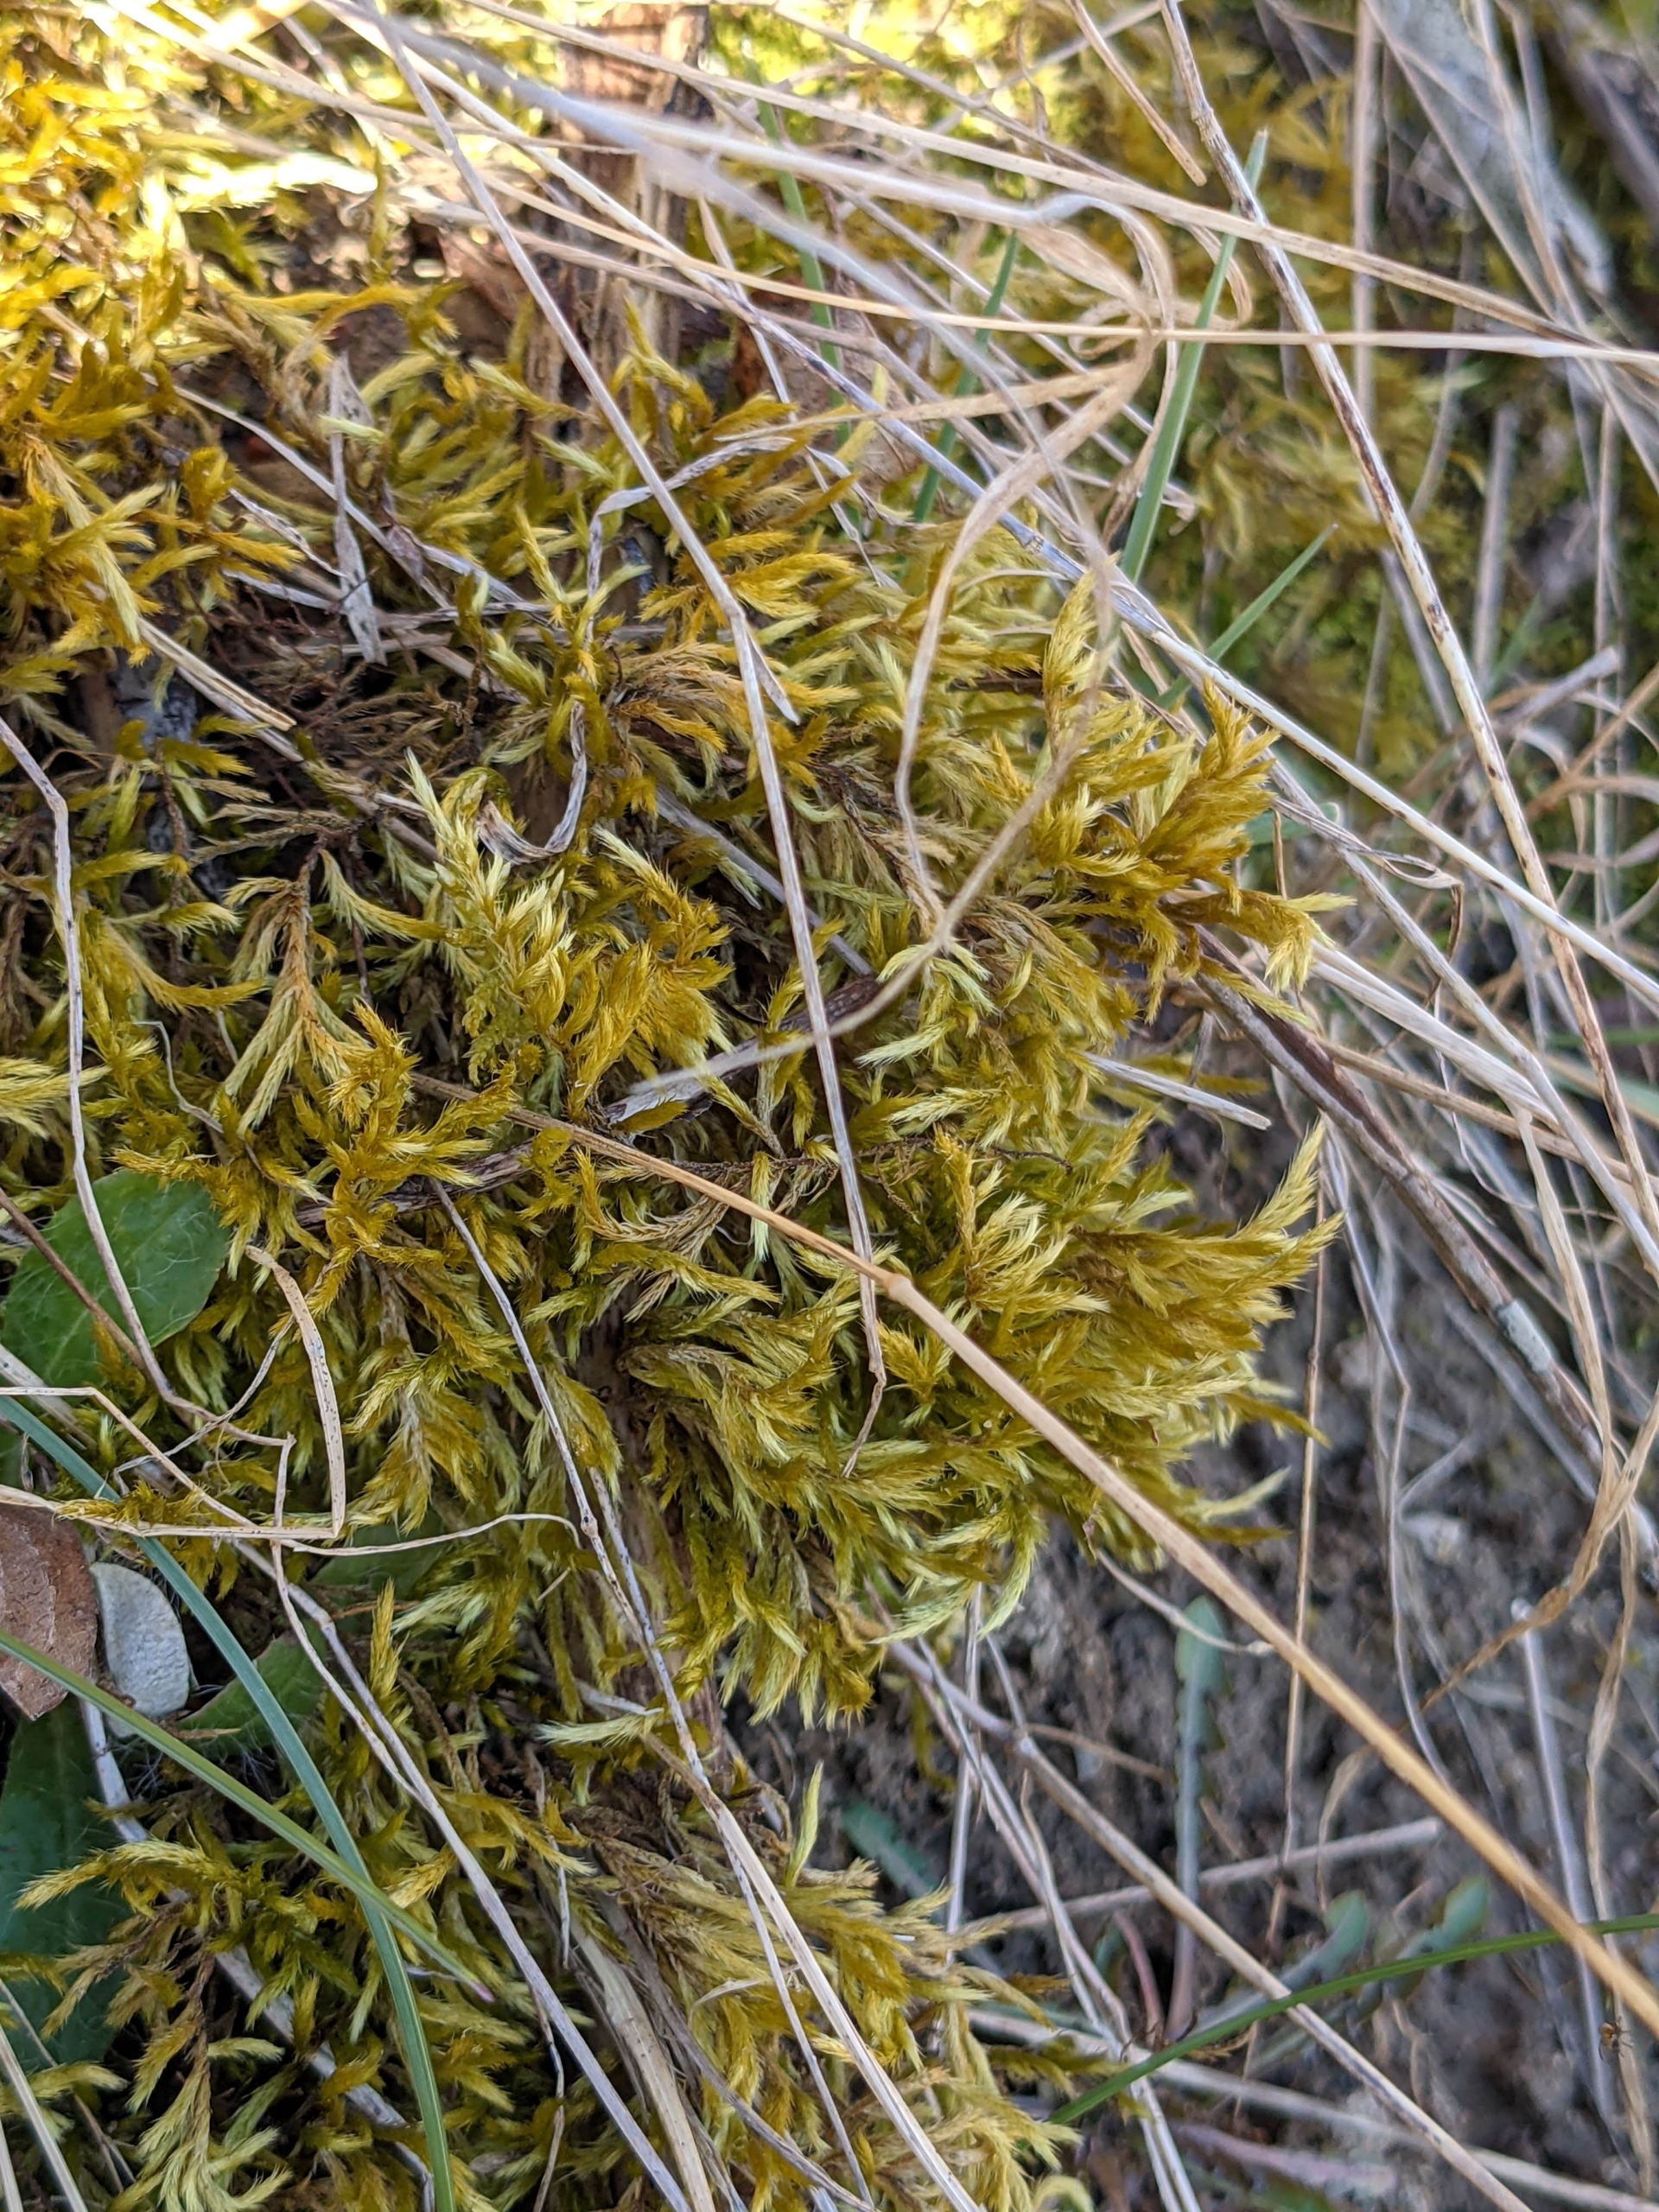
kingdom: Plantae
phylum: Bryophyta
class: Bryopsida
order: Hypnales
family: Brachytheciaceae
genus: Homalothecium
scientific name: Homalothecium lutescens
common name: Gul krumkapsel
